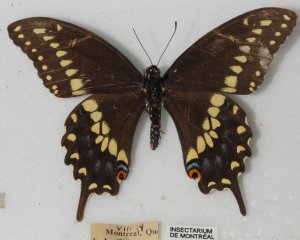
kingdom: Animalia
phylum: Arthropoda
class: Insecta
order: Lepidoptera
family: Papilionidae
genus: Papilio
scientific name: Papilio polyxenes
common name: Black Swallowtail
